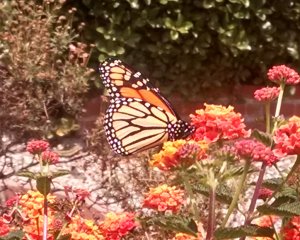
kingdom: Animalia
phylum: Arthropoda
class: Insecta
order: Lepidoptera
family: Nymphalidae
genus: Danaus
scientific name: Danaus plexippus
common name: Monarch
